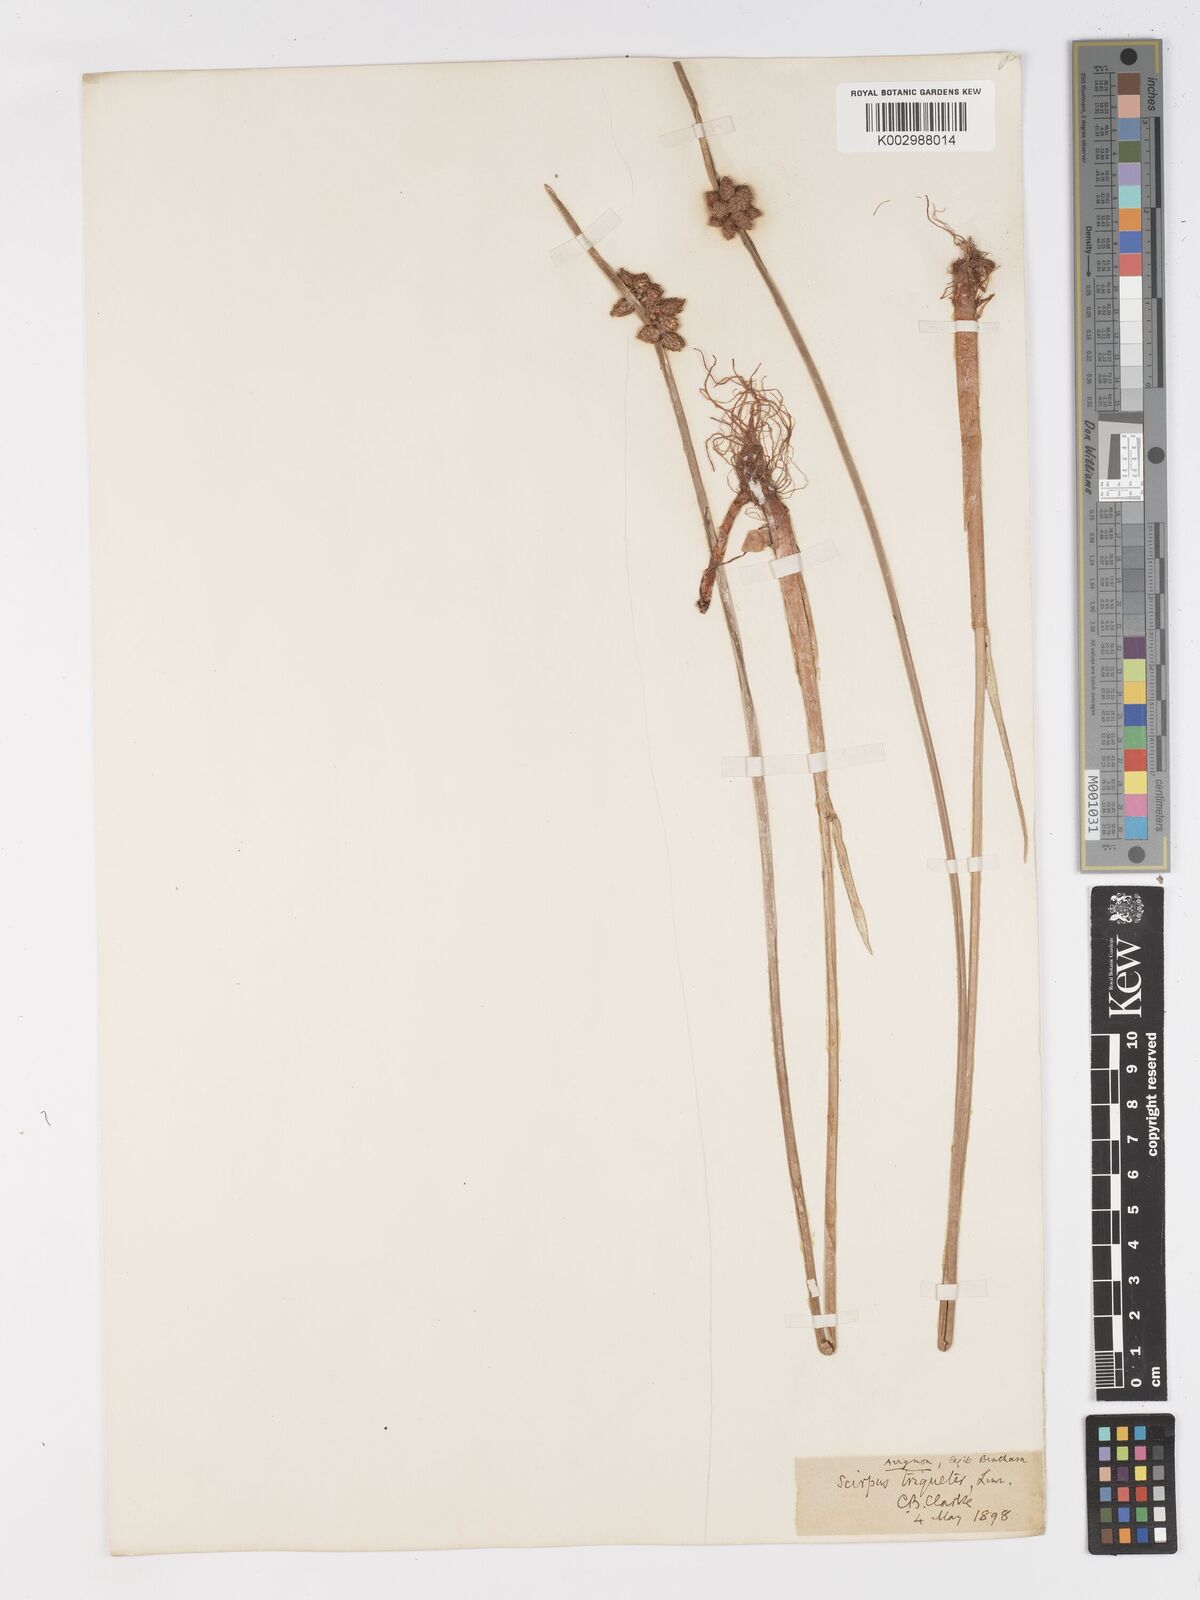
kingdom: Plantae
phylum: Tracheophyta
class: Liliopsida
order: Poales
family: Cyperaceae
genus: Schoenoplectus
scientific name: Schoenoplectus triqueter
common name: Triangular club-rush
